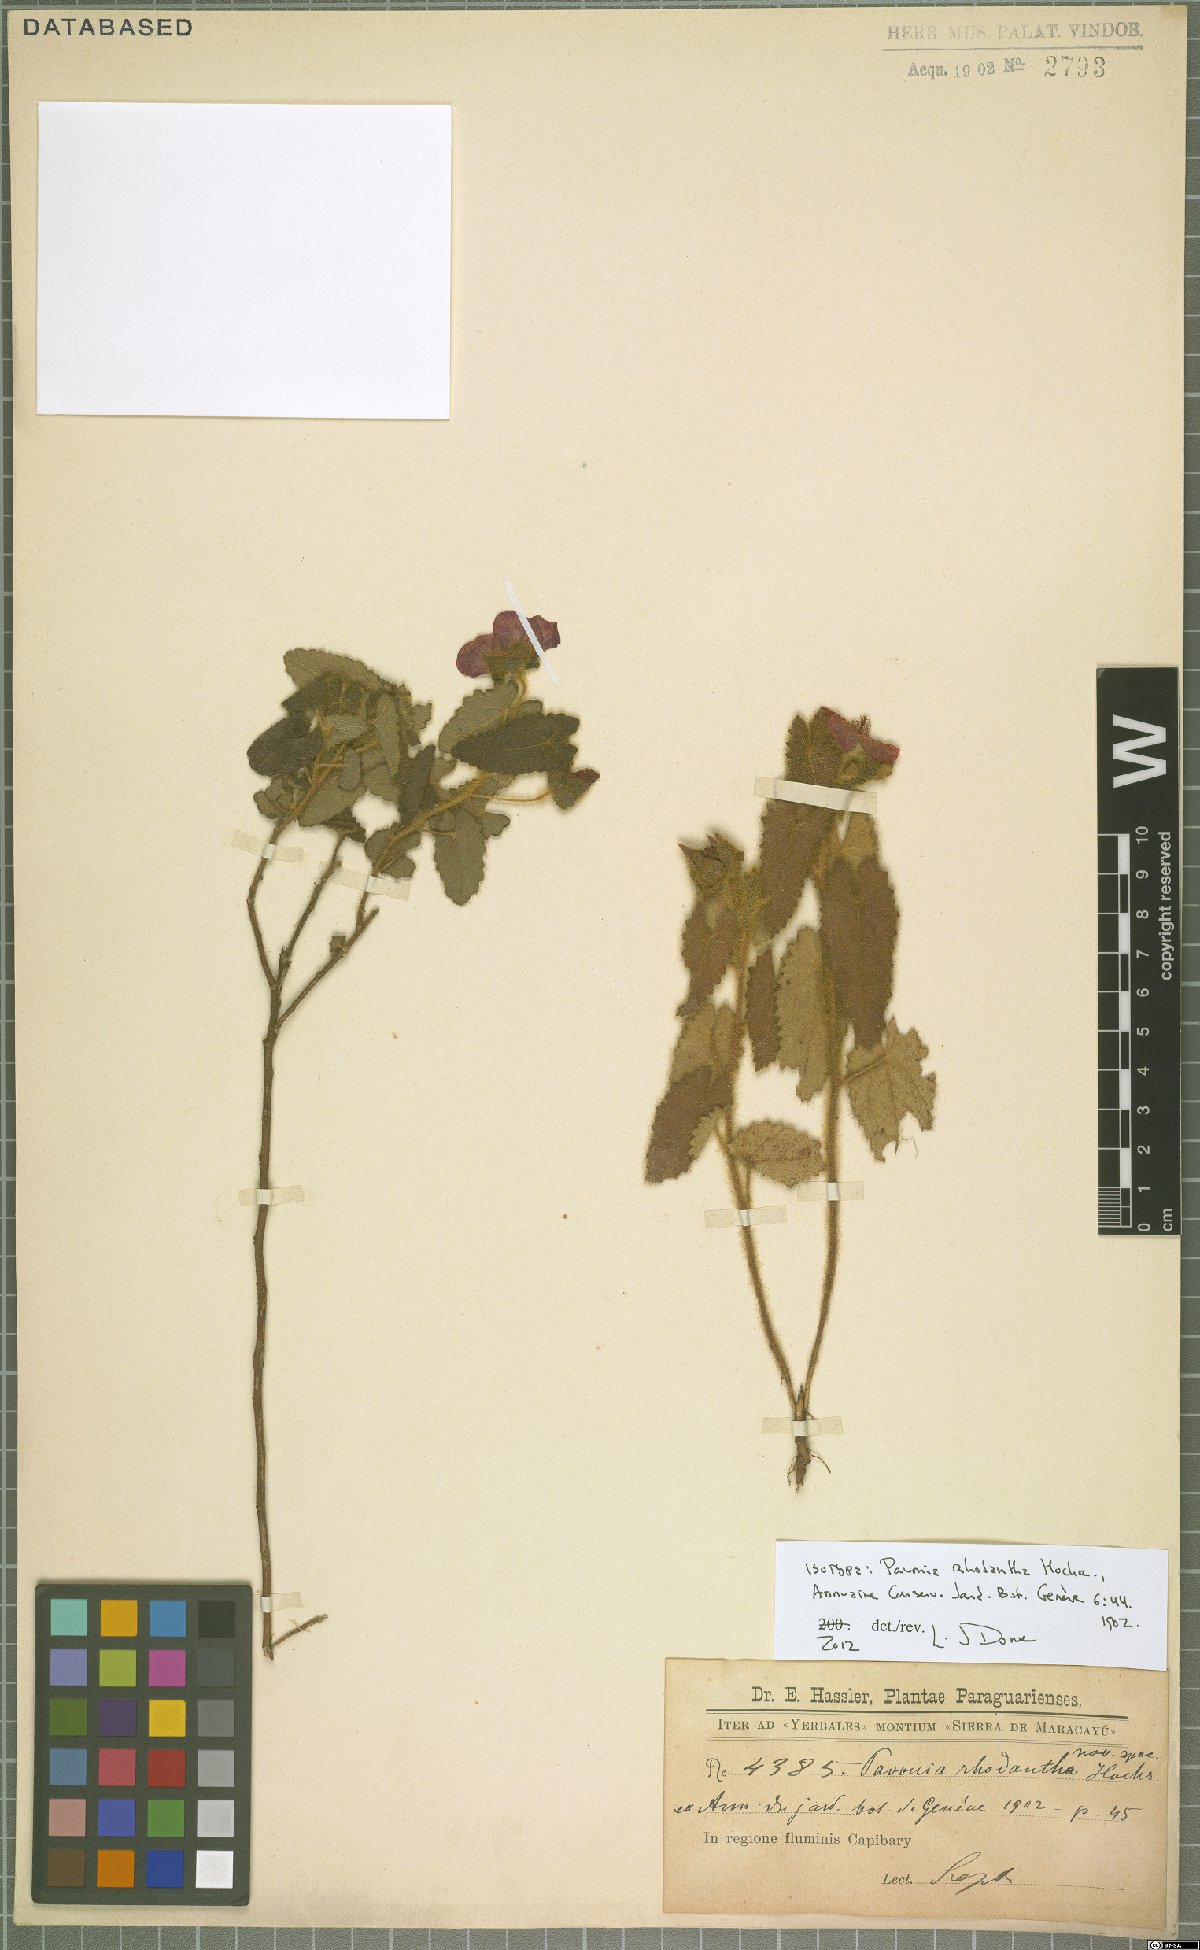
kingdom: Plantae
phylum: Tracheophyta
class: Magnoliopsida
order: Malvales
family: Malvaceae
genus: Pavonia
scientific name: Pavonia rhodantha
